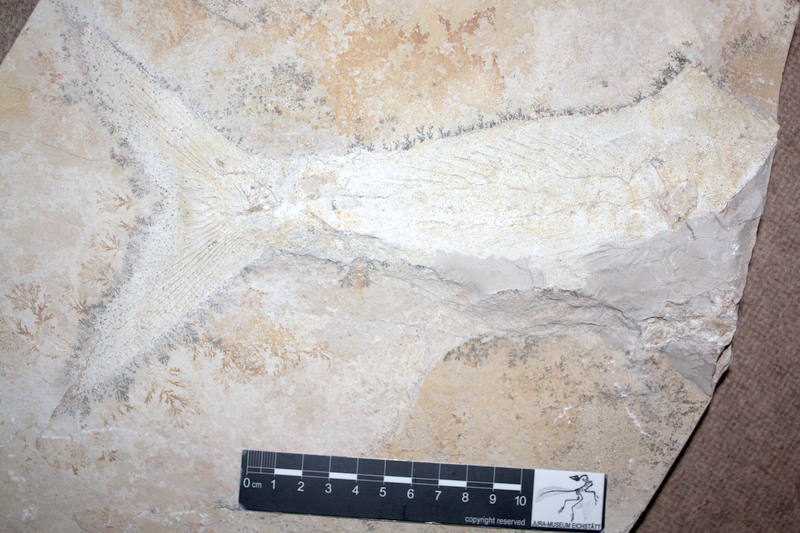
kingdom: Animalia
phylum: Chordata
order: Amiiformes
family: Caturidae
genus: Caturus
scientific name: Caturus
